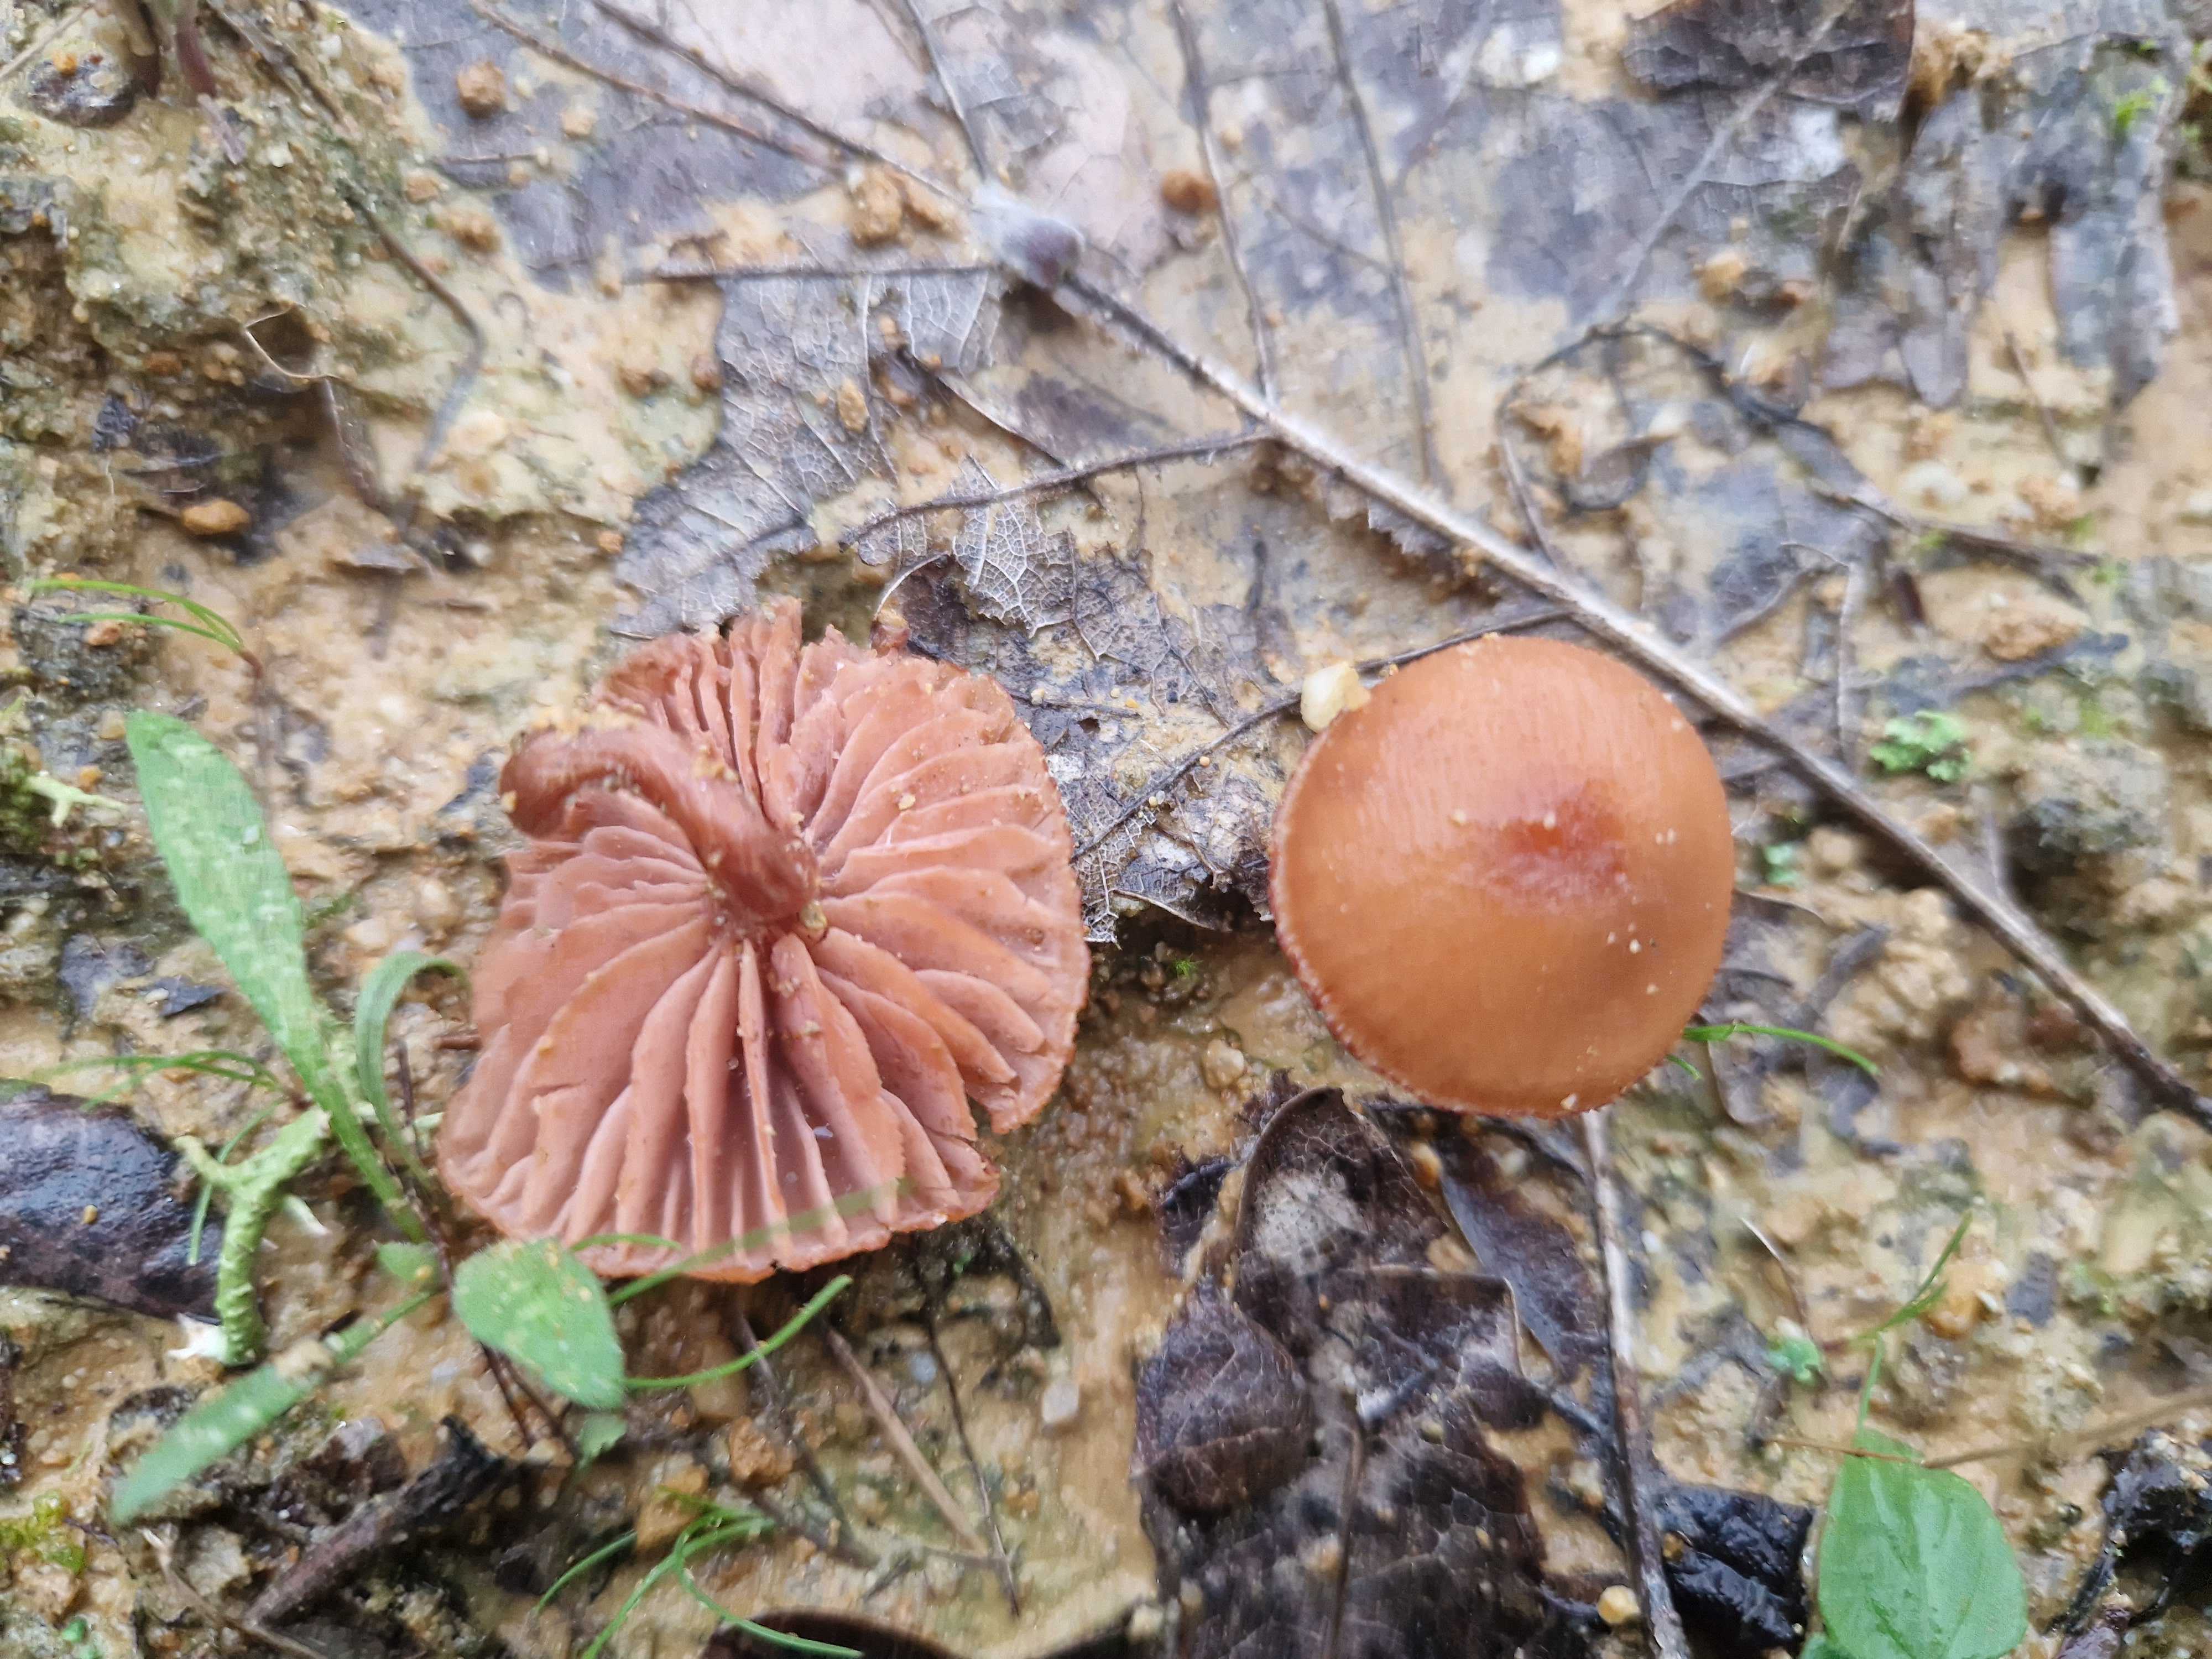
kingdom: Fungi
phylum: Basidiomycota
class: Agaricomycetes
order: Agaricales
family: Hydnangiaceae
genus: Laccaria
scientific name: Laccaria laccata
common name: rød ametysthat
